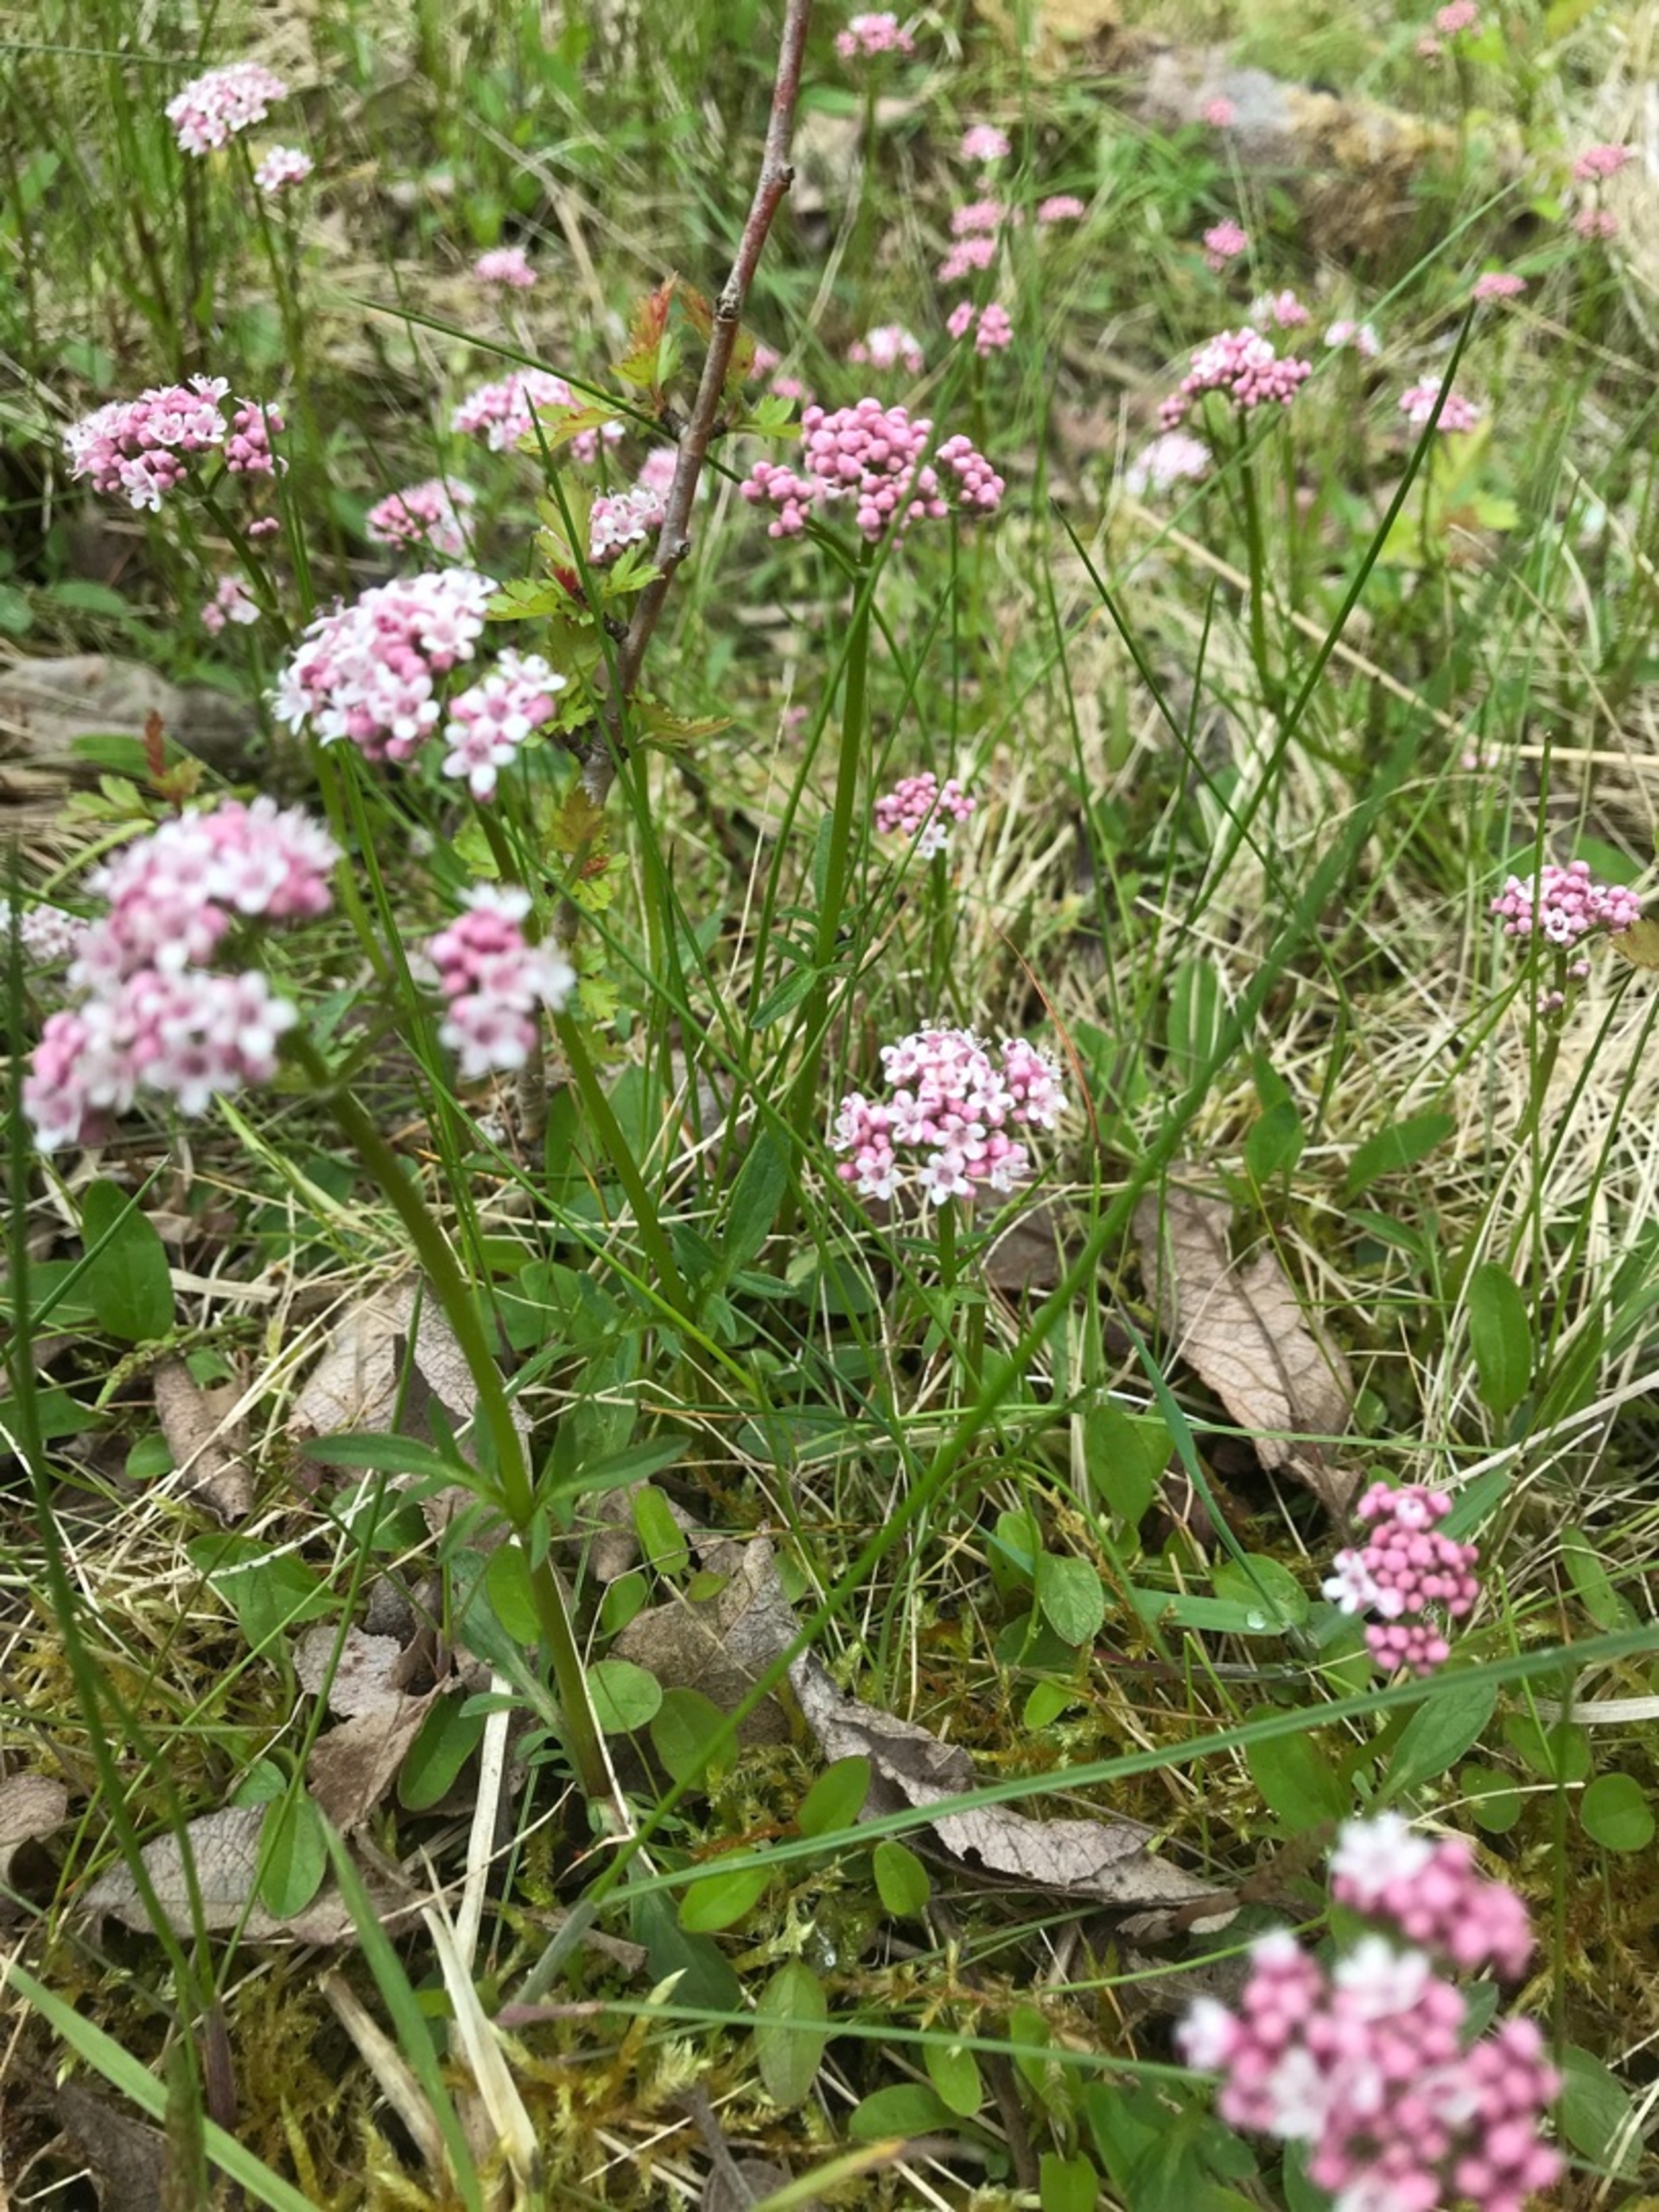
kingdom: Plantae
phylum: Tracheophyta
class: Magnoliopsida
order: Dipsacales
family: Caprifoliaceae
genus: Valeriana
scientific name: Valeriana dioica
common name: Tvebo baldrian
